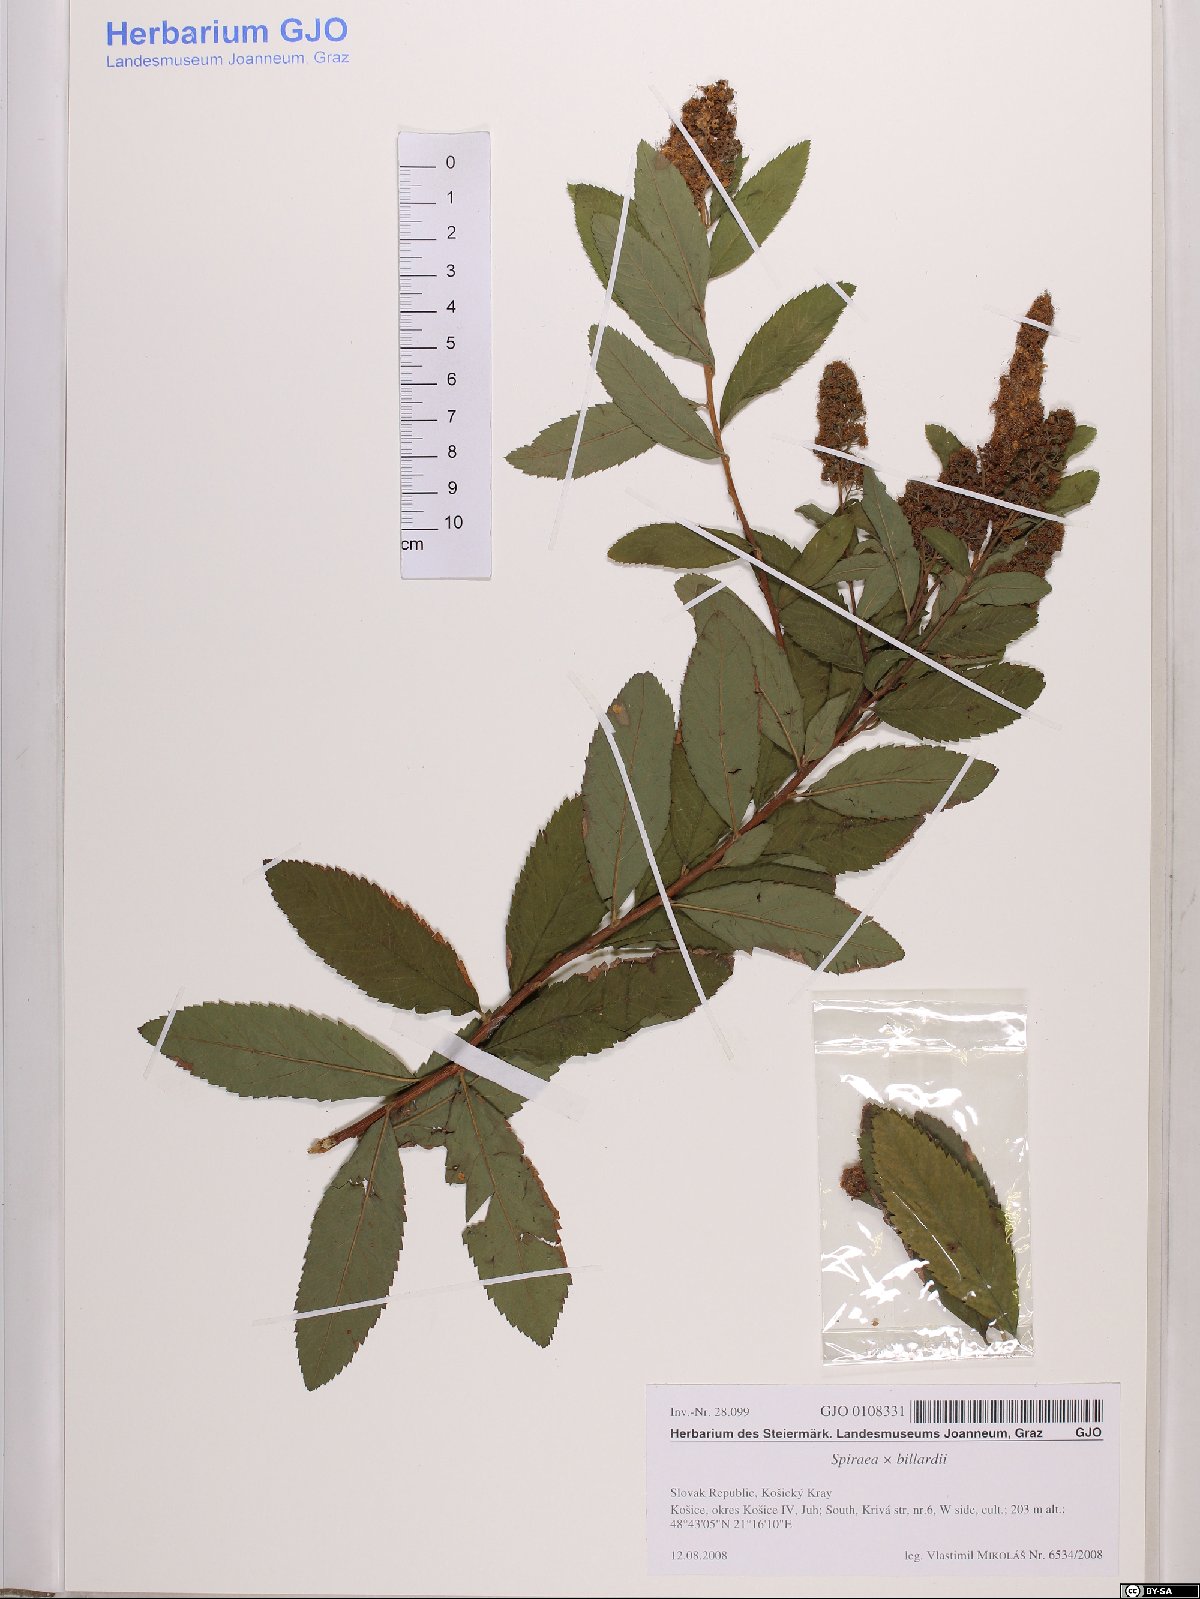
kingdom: Plantae
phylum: Tracheophyta
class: Magnoliopsida
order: Rosales
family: Rosaceae
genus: Spiraea
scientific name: Spiraea billardii
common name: Billard's bridewort
